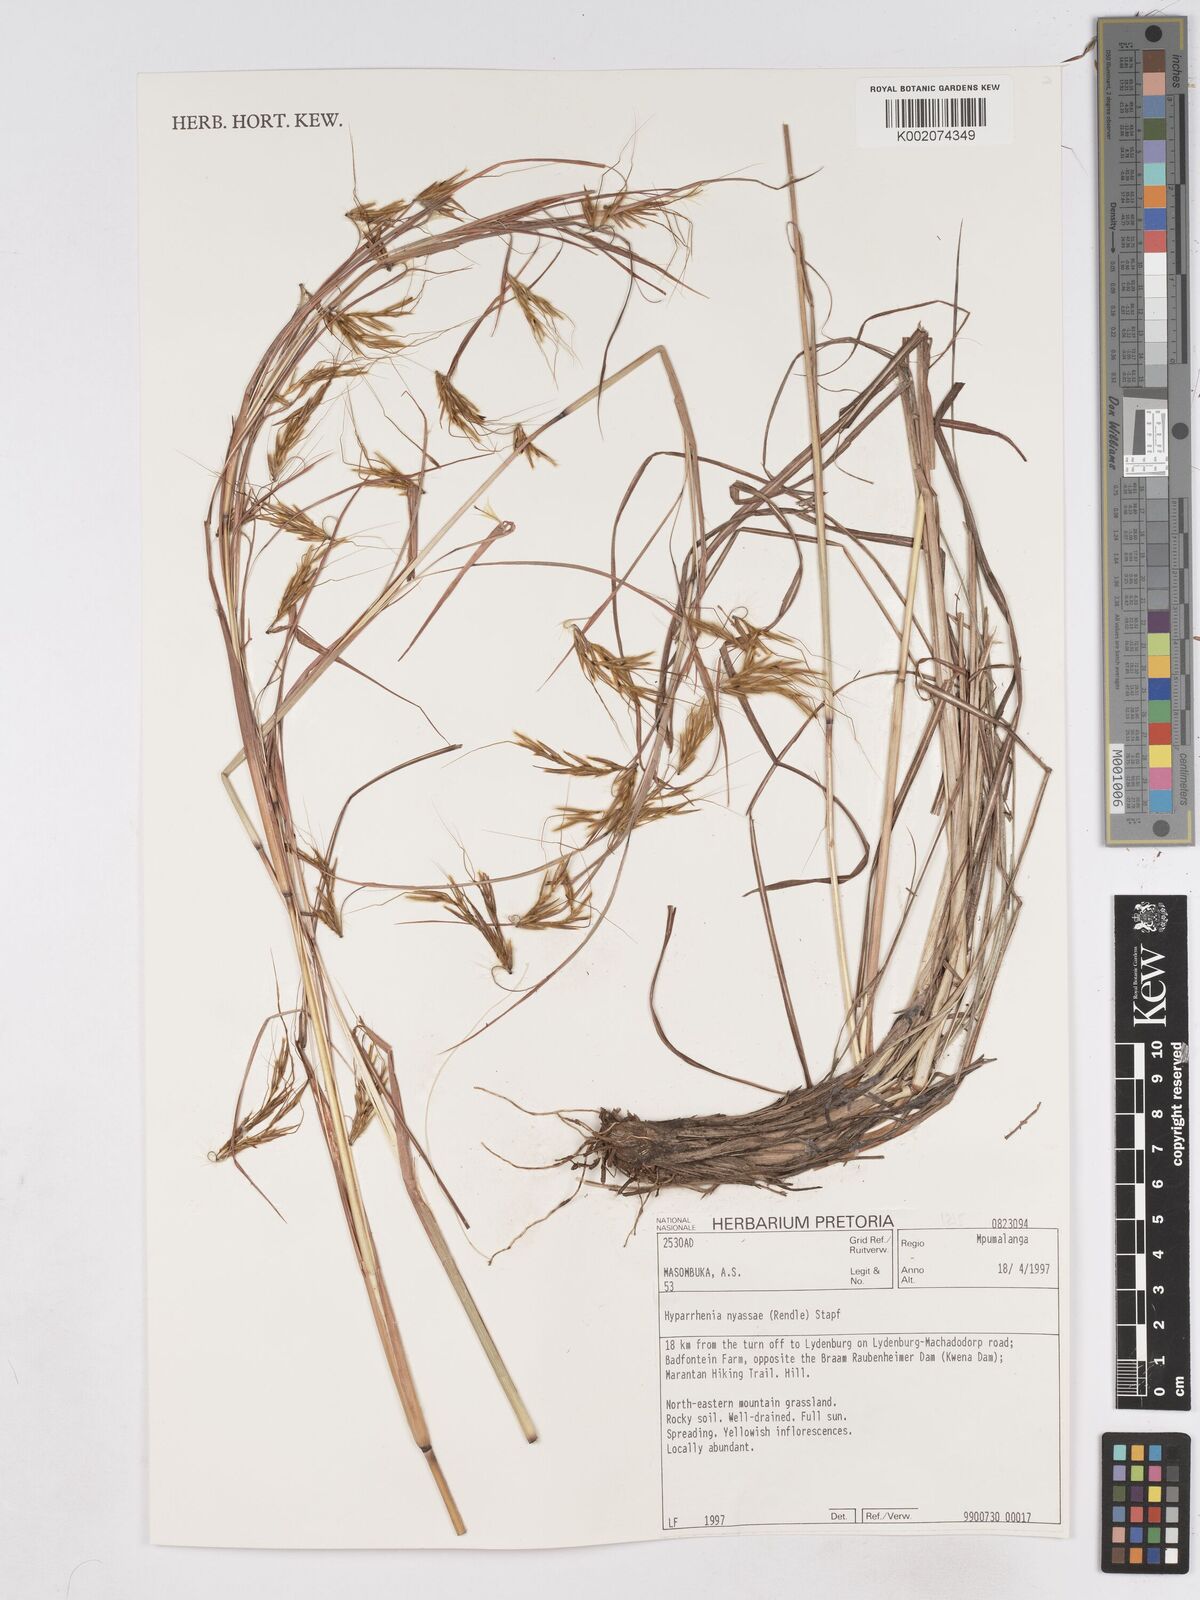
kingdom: Plantae
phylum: Tracheophyta
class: Liliopsida
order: Poales
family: Poaceae
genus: Hyparrhenia
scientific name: Hyparrhenia nyassae
